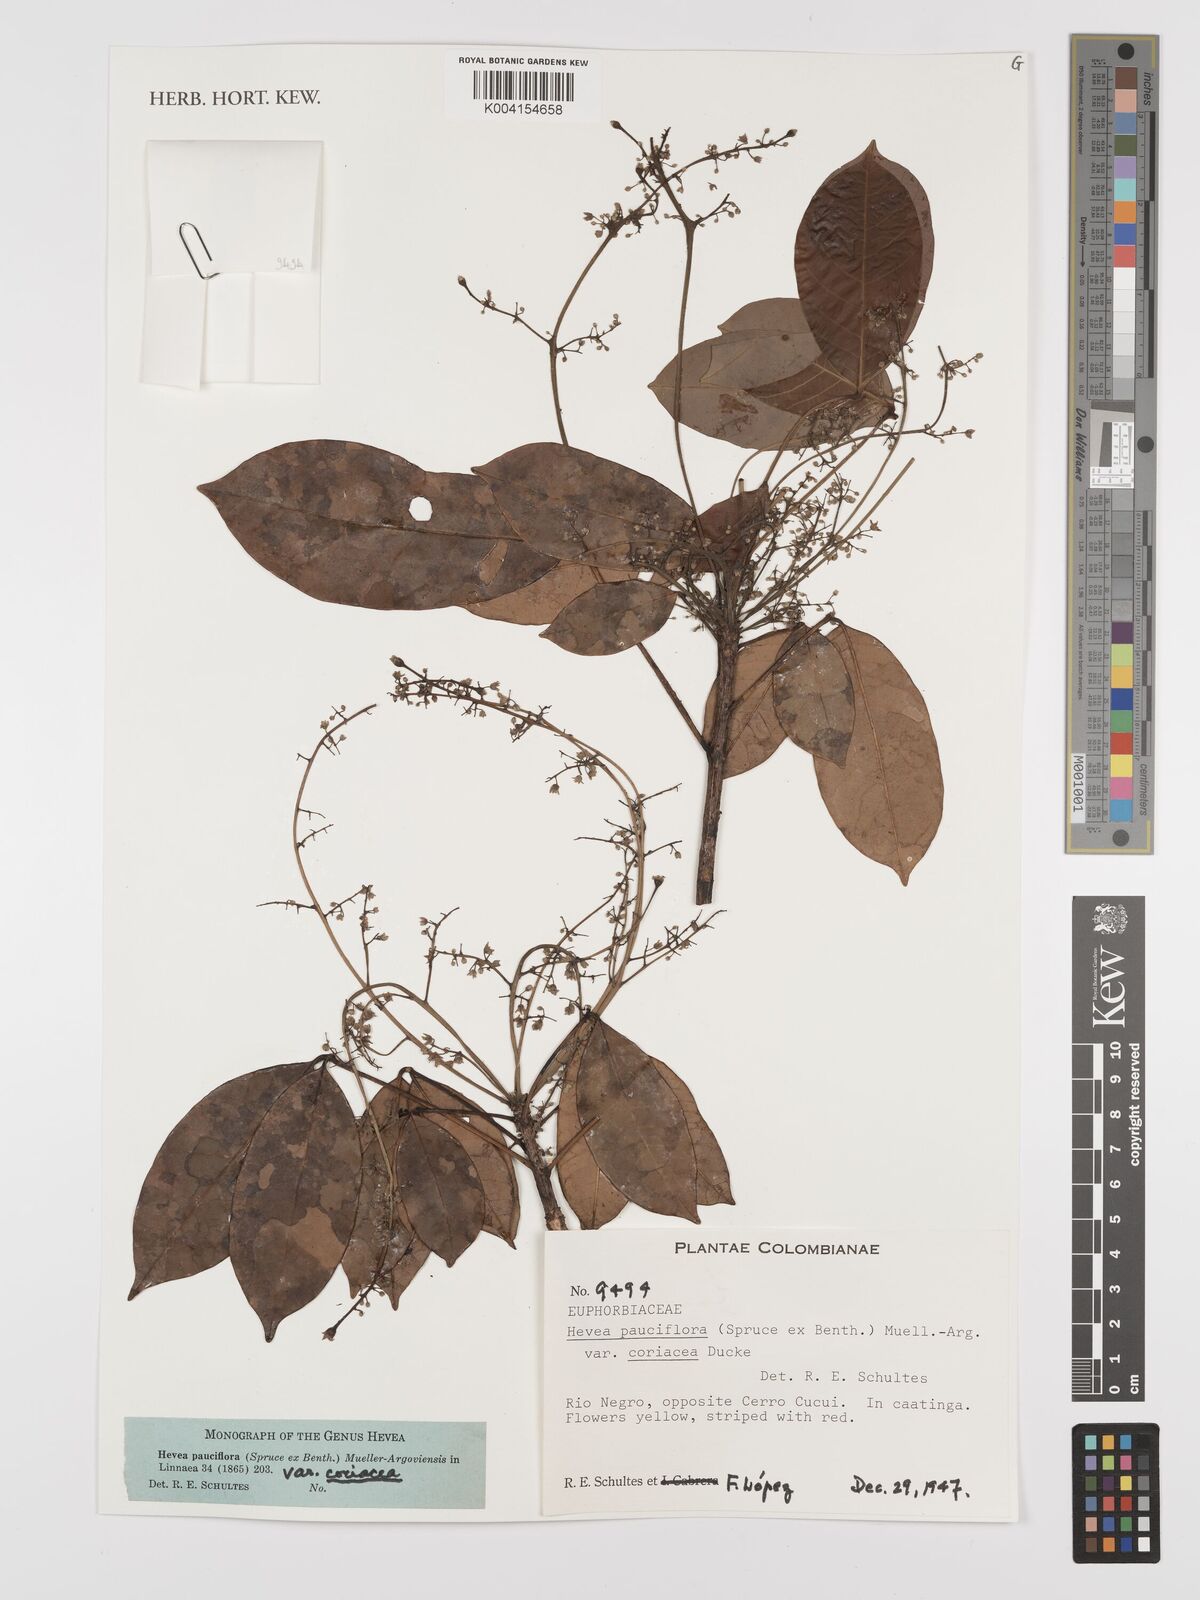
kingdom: Plantae
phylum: Tracheophyta
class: Magnoliopsida
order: Malpighiales
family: Euphorbiaceae
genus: Hevea
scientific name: Hevea pauciflora
